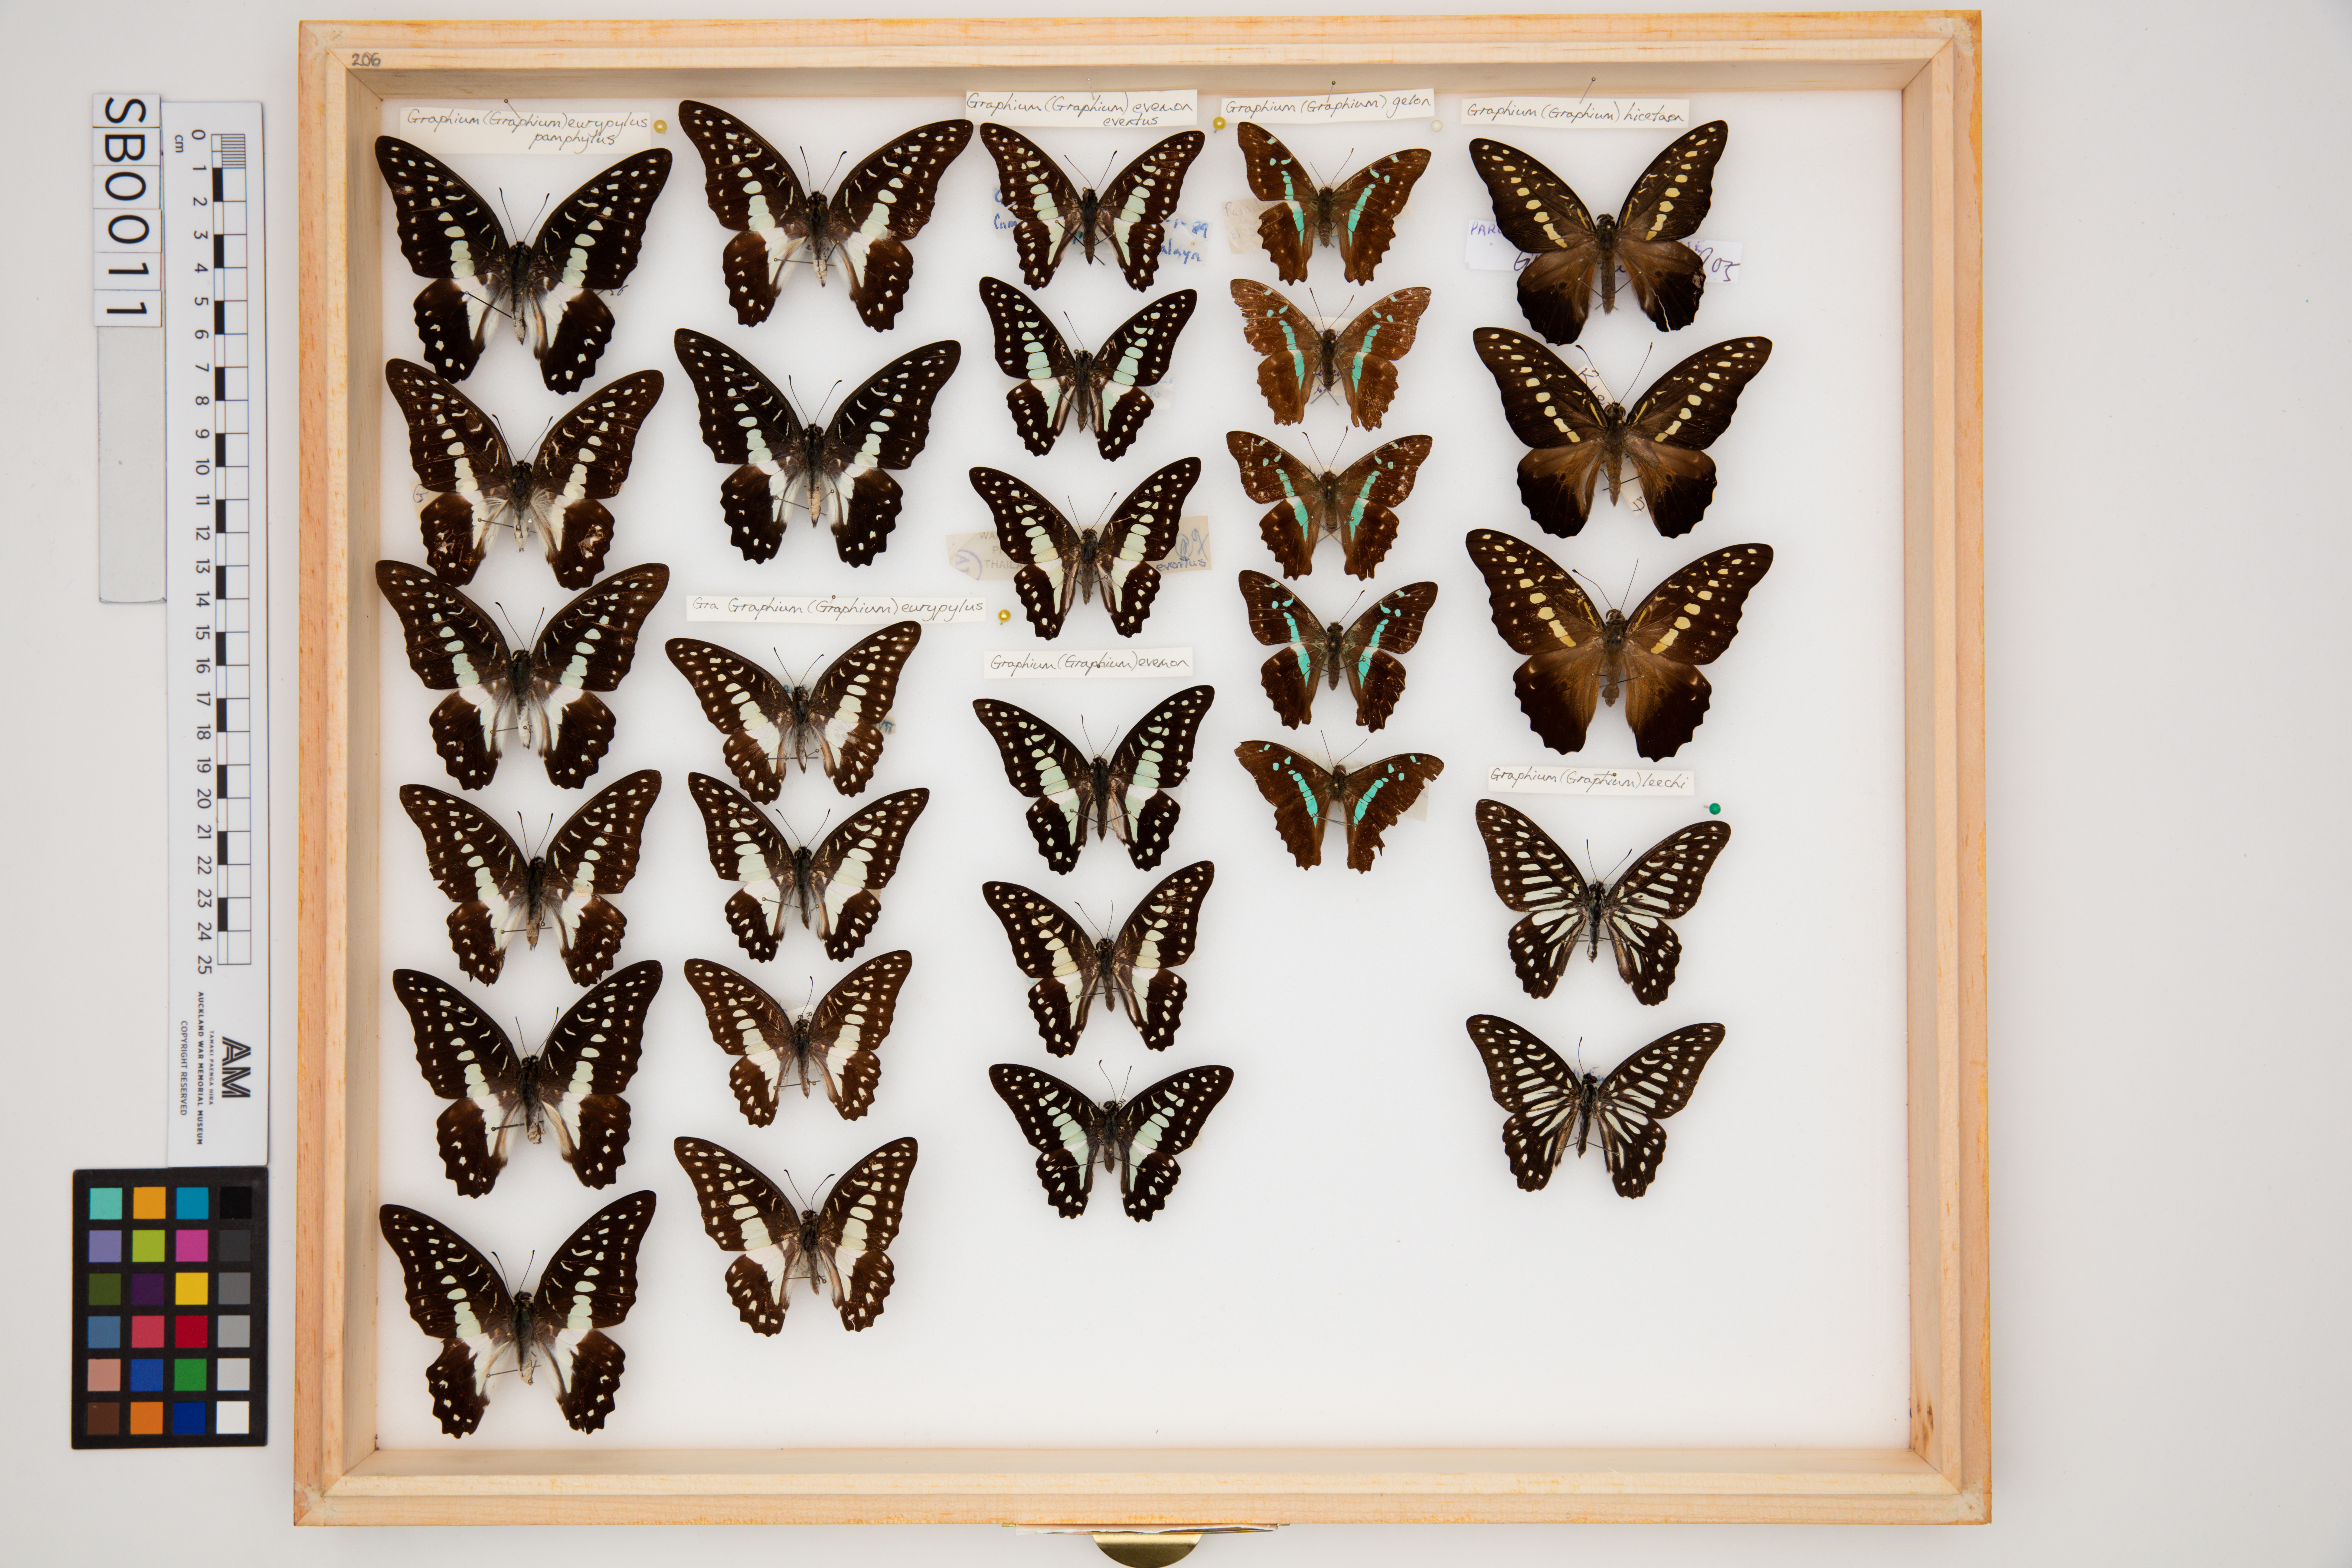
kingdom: Animalia
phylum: Arthropoda
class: Insecta
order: Lepidoptera
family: Papilionidae
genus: Graphium
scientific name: Graphium evemon
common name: Lesser jay
